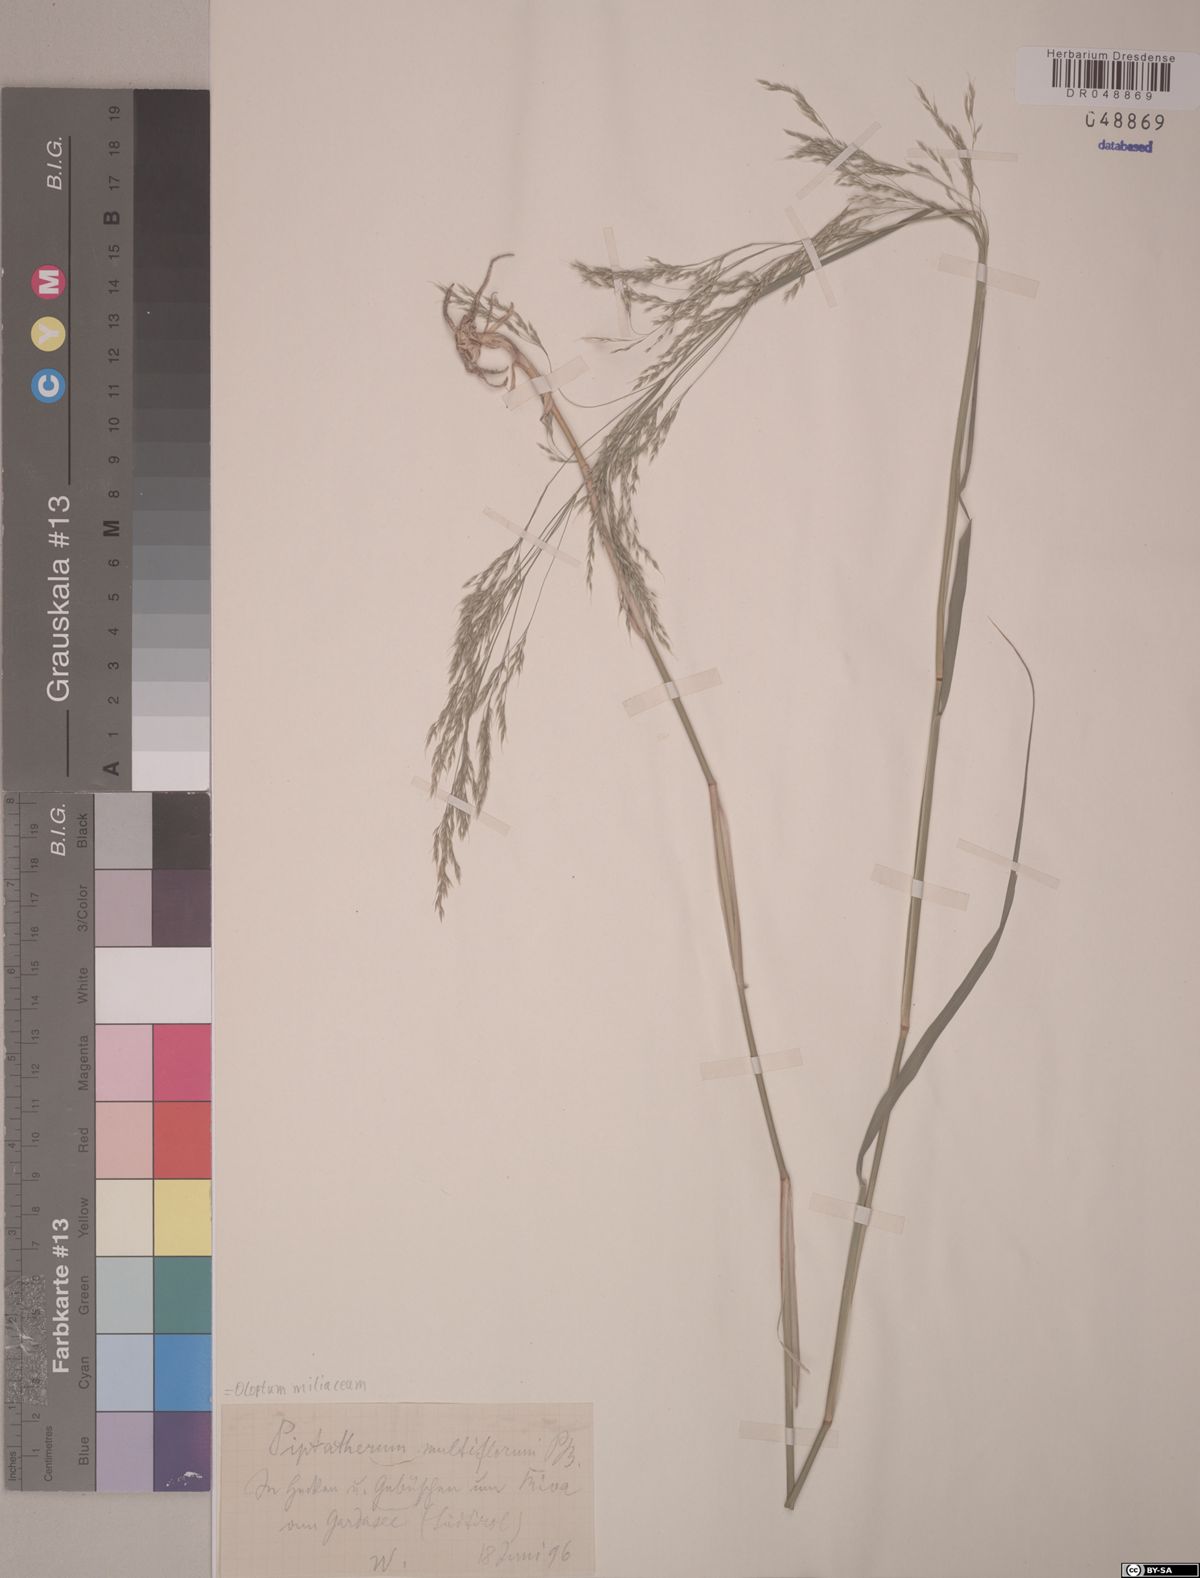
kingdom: Plantae
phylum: Tracheophyta
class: Liliopsida
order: Poales
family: Poaceae
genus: Oloptum
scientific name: Oloptum miliaceum
